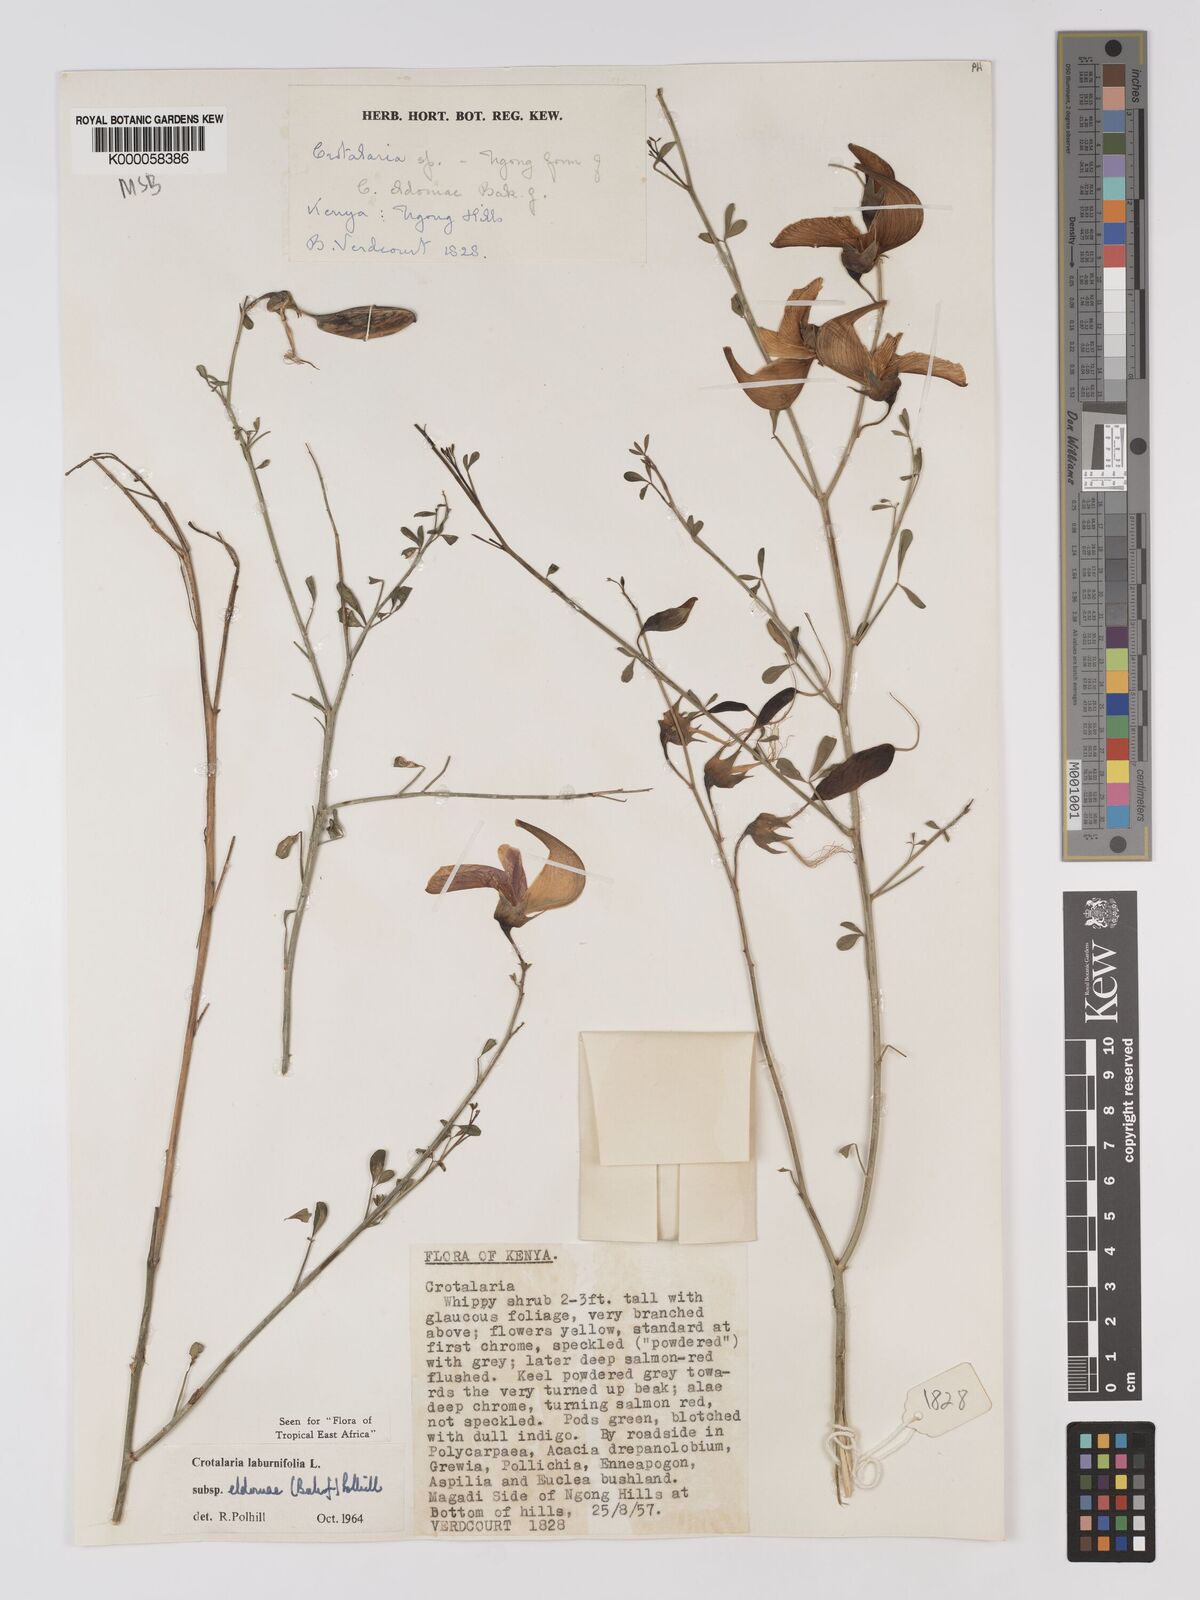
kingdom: Plantae
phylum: Tracheophyta
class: Magnoliopsida
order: Fabales
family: Fabaceae
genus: Crotalaria
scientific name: Crotalaria laburnifolia
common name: Birdflower
